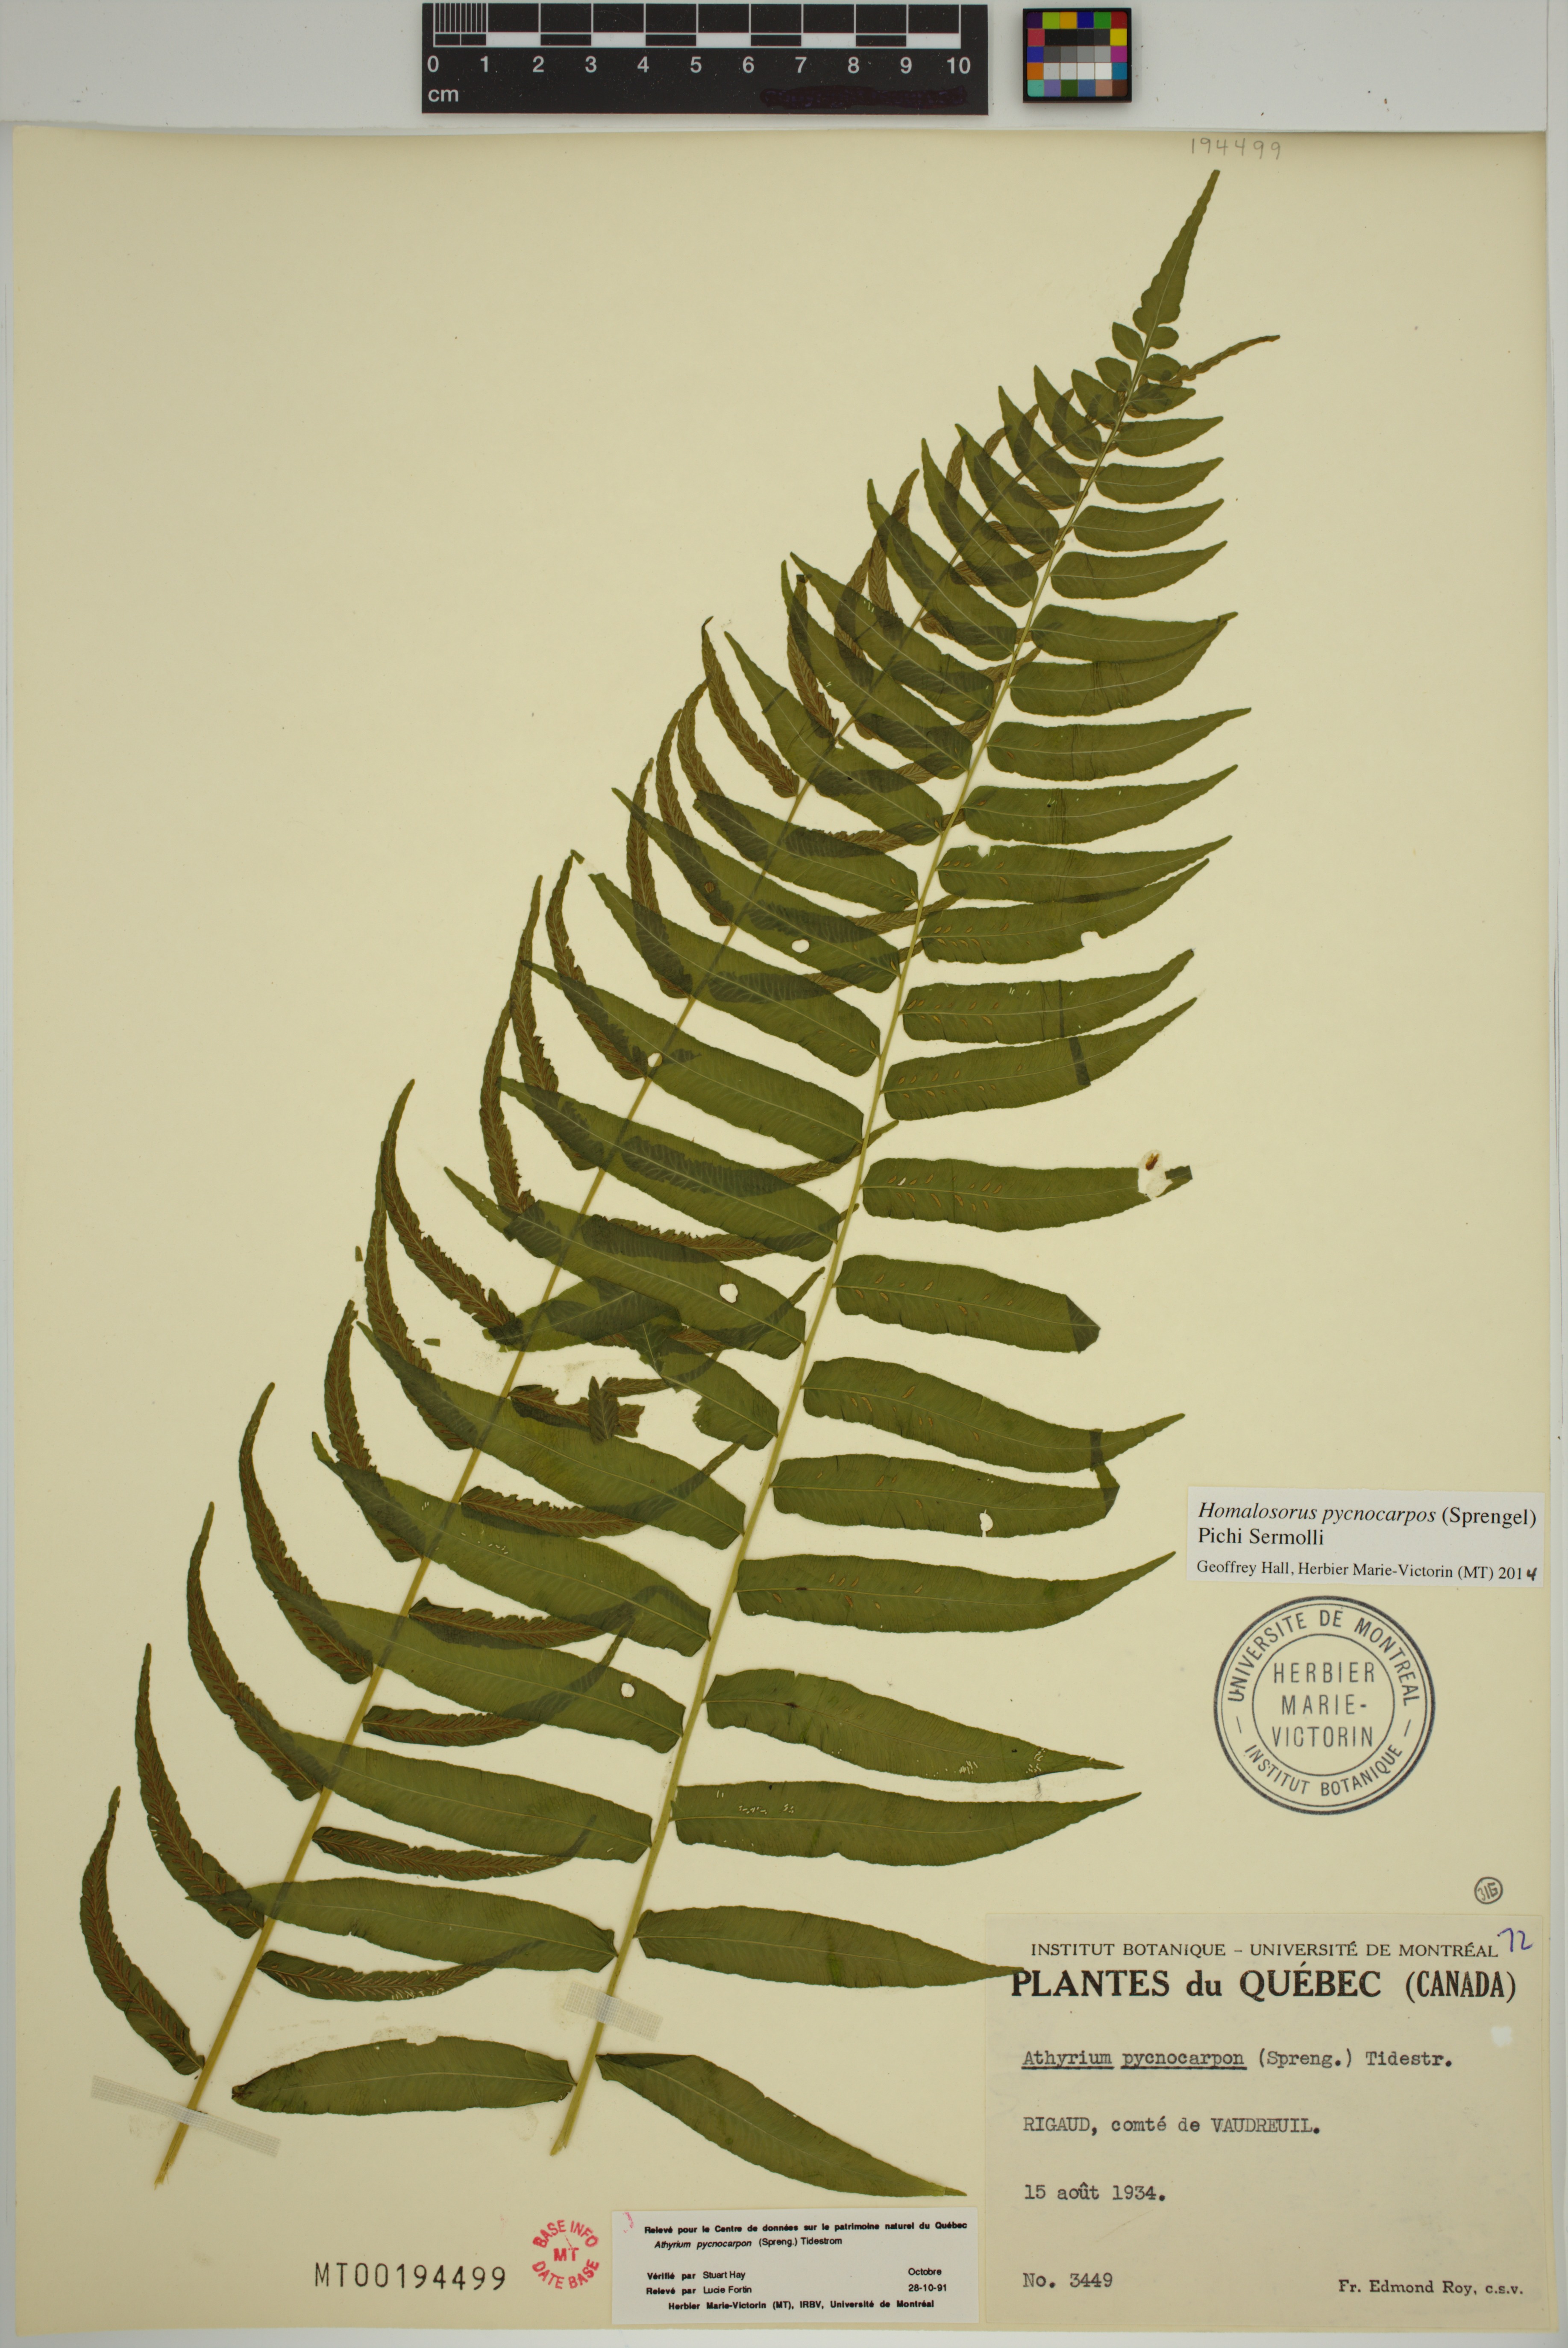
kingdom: Plantae
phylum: Tracheophyta
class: Polypodiopsida
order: Polypodiales
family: Diplaziopsidaceae
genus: Homalosorus
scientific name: Homalosorus pycnocarpos
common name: Glade fern
